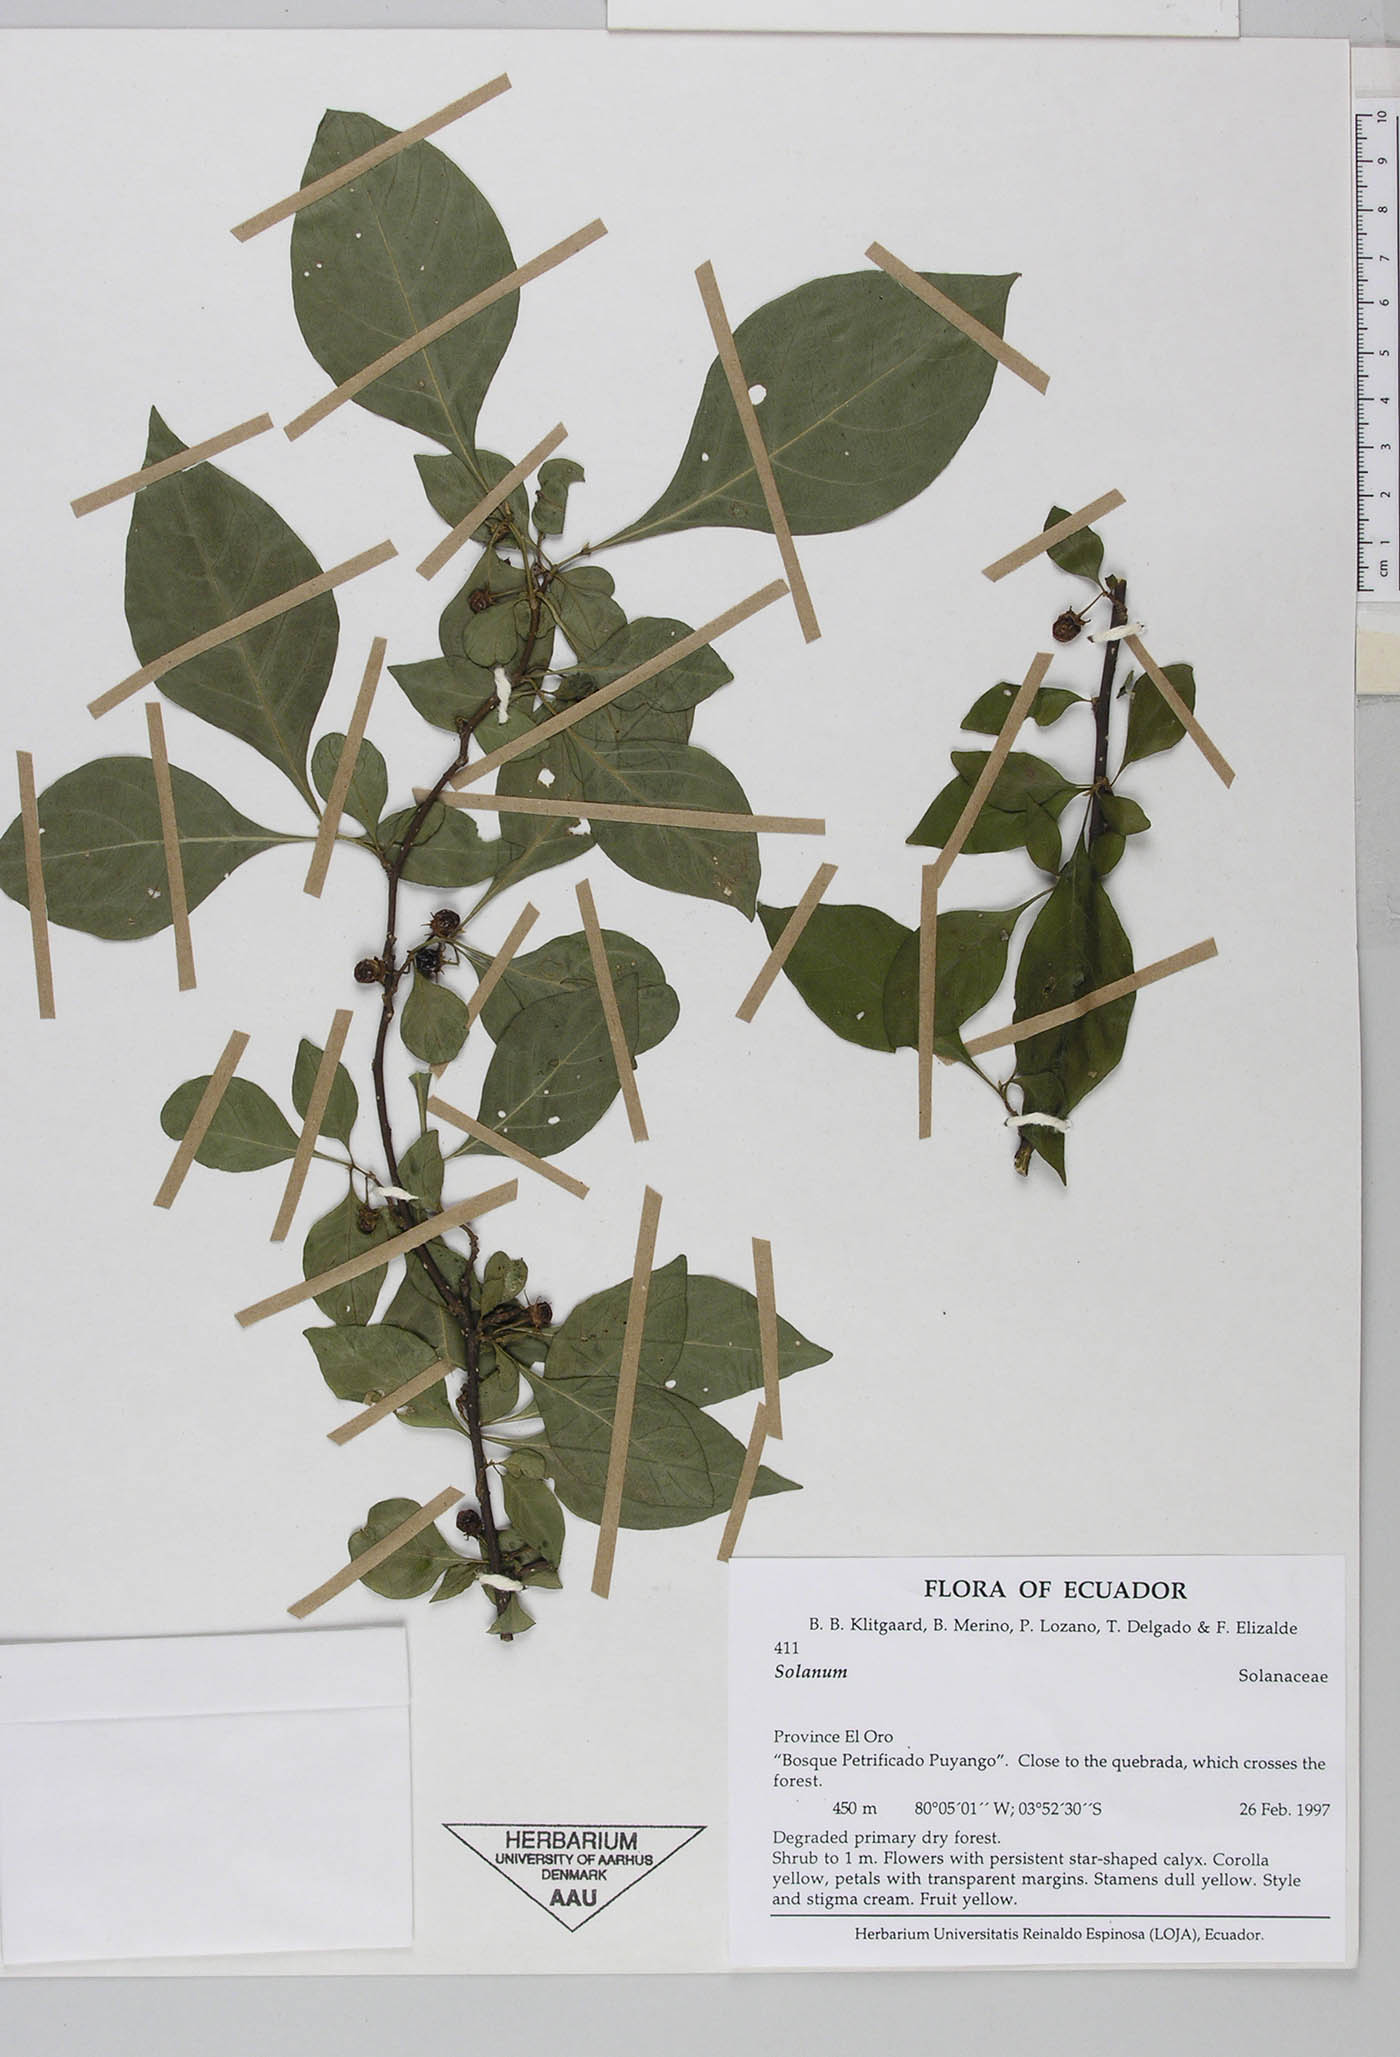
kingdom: Plantae
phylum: Tracheophyta
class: Magnoliopsida
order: Solanales
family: Solanaceae
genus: Capsicum
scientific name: Capsicum rhomboideum
